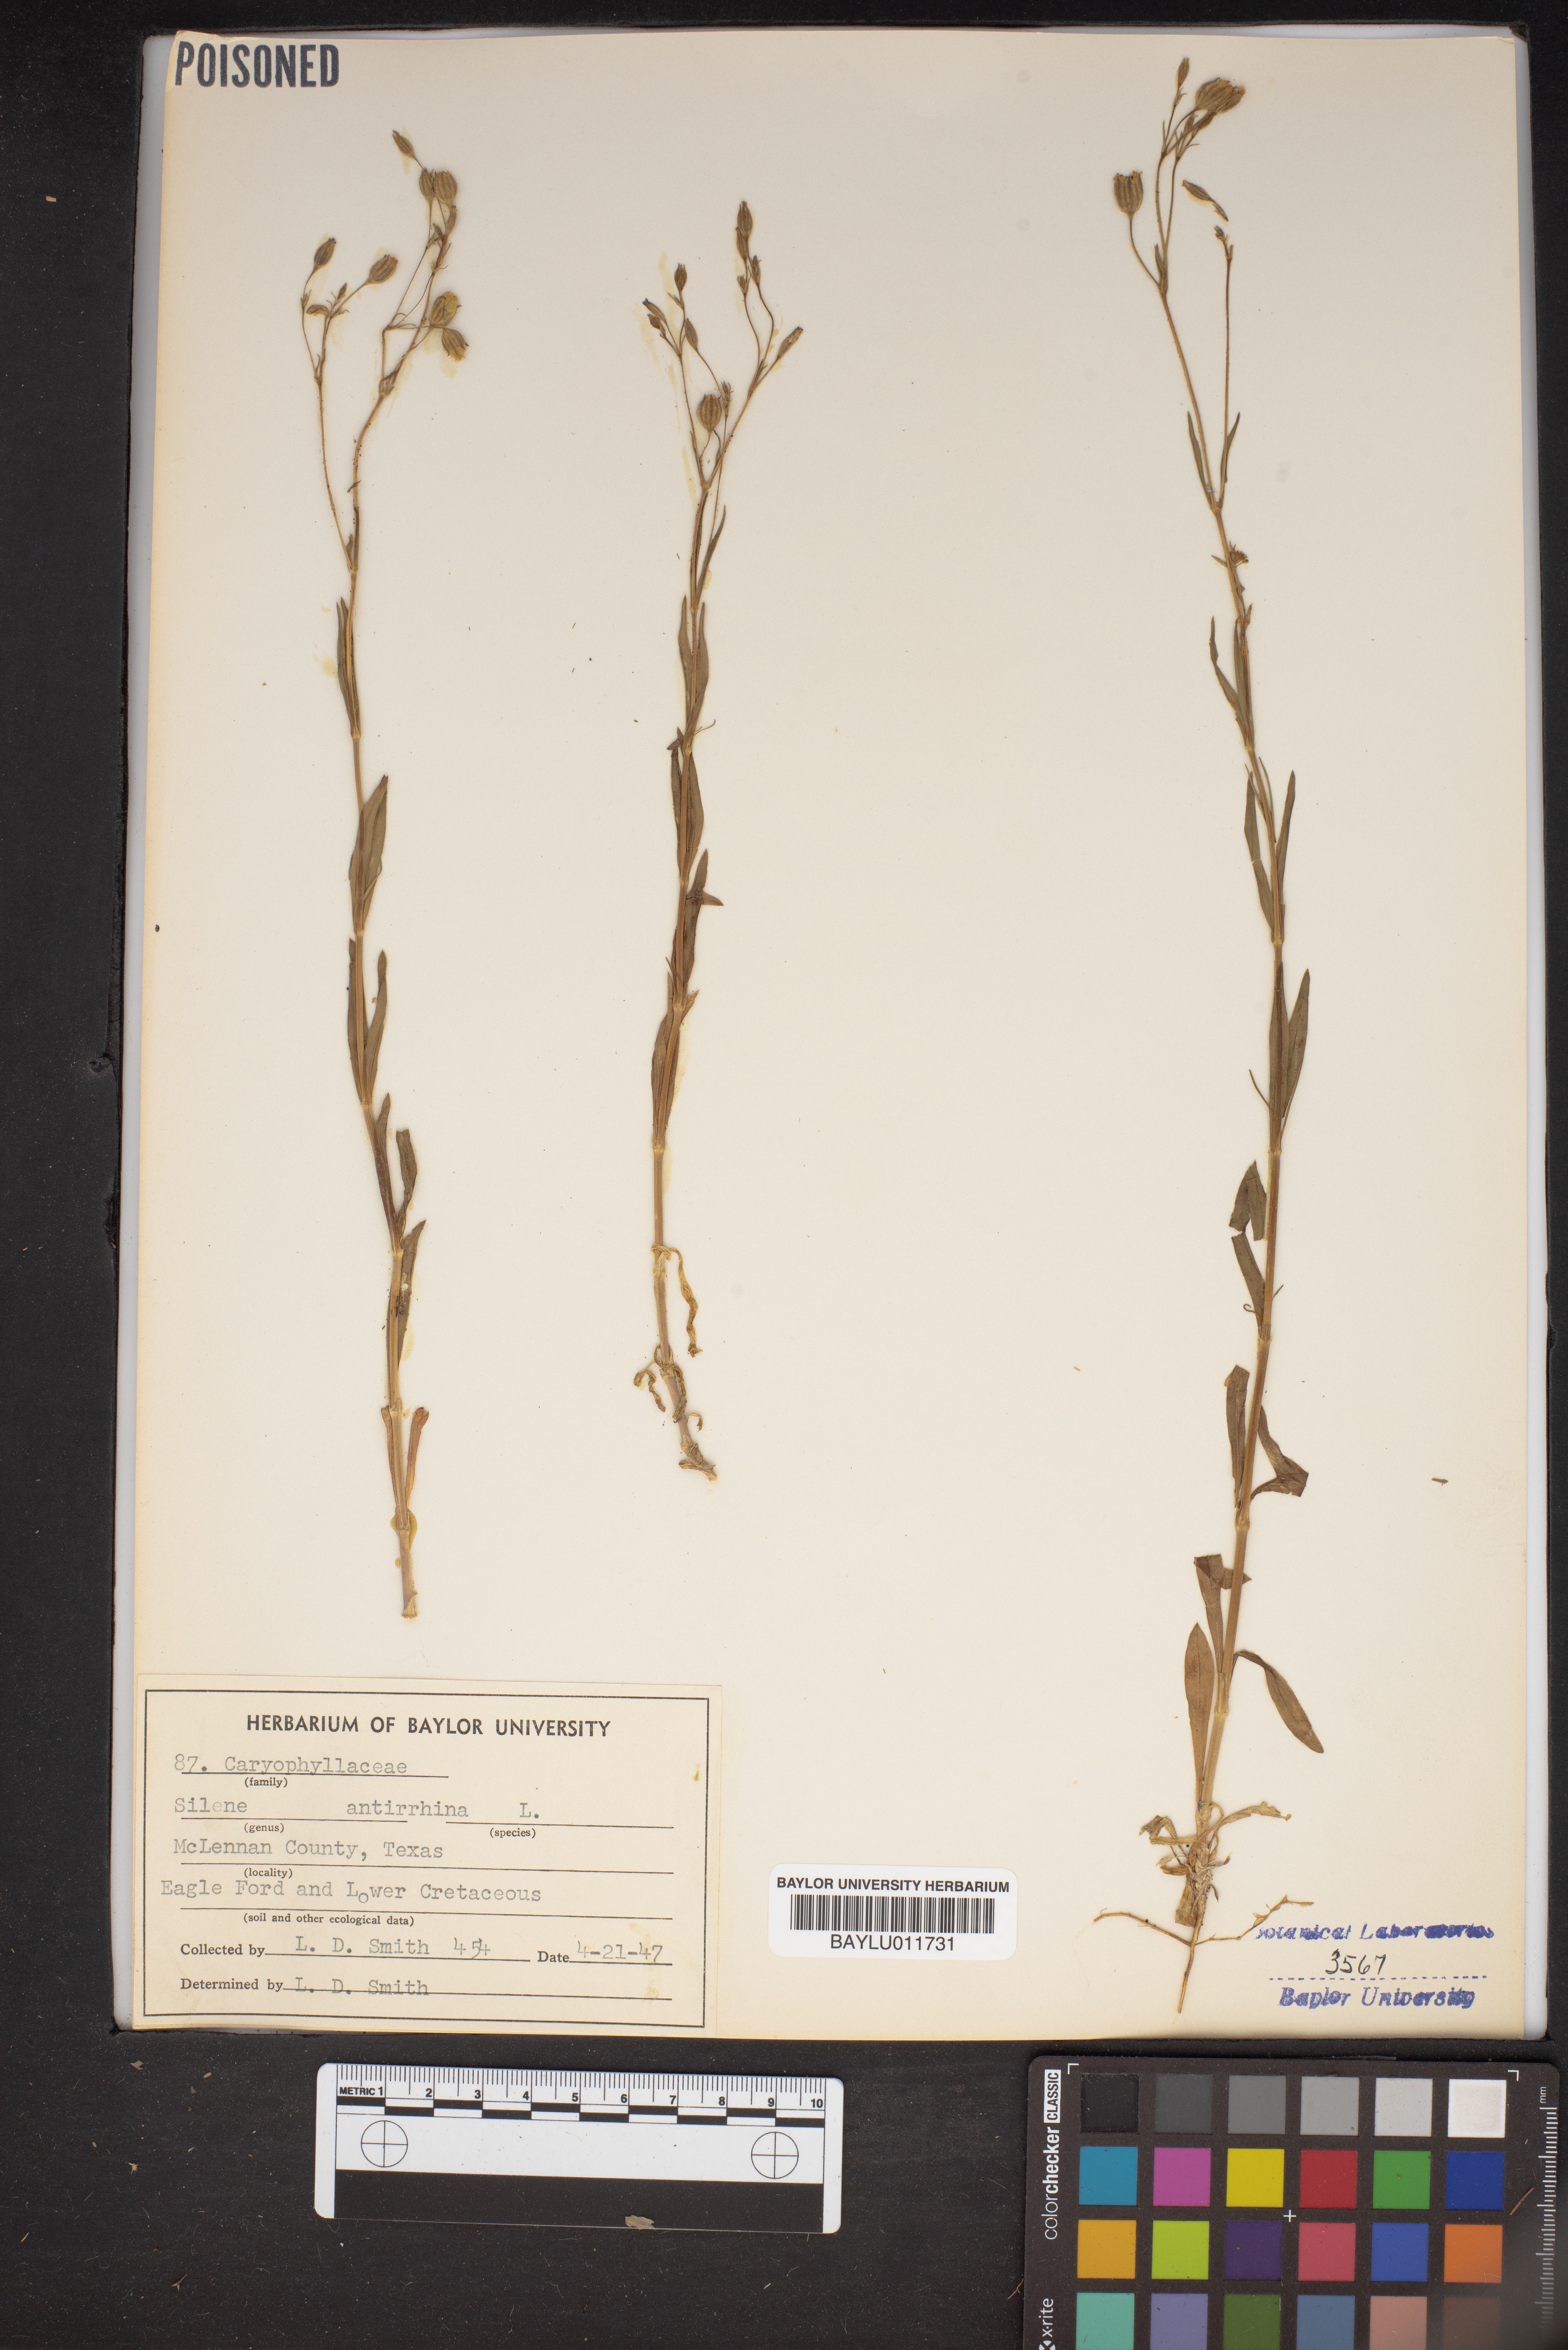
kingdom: Plantae
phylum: Tracheophyta
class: Magnoliopsida
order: Caryophyllales
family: Caryophyllaceae
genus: Silene
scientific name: Silene antirrhina
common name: Sleepy catchfly
